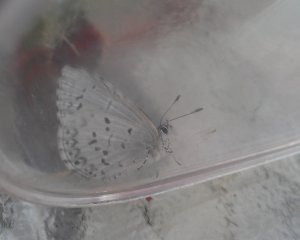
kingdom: Animalia
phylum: Arthropoda
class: Insecta
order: Lepidoptera
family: Lycaenidae
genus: Celastrina
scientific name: Celastrina lucia
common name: Northern Spring Azure
